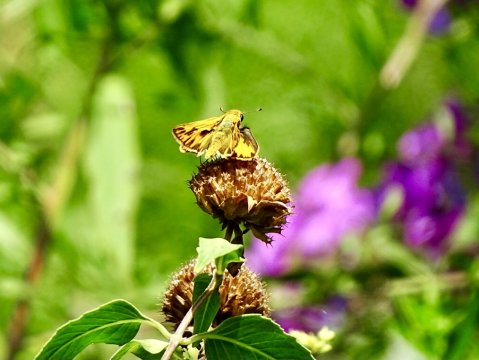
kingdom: Animalia
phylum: Arthropoda
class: Insecta
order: Lepidoptera
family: Hesperiidae
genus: Hylephila
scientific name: Hylephila phyleus
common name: Fiery Skipper
